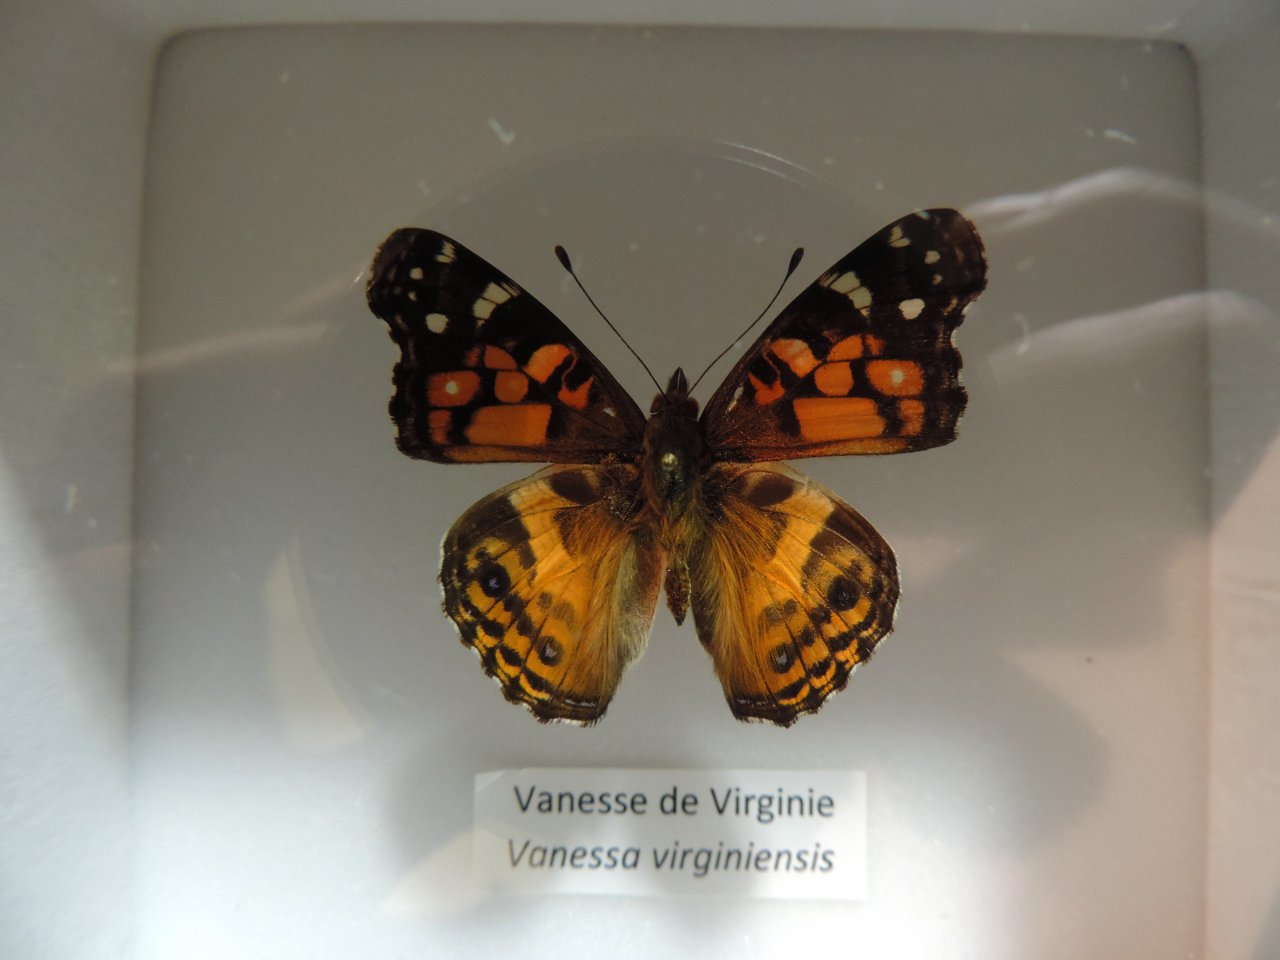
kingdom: Animalia
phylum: Arthropoda
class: Insecta
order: Lepidoptera
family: Nymphalidae
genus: Vanessa
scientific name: Vanessa virginiensis
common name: American Lady
